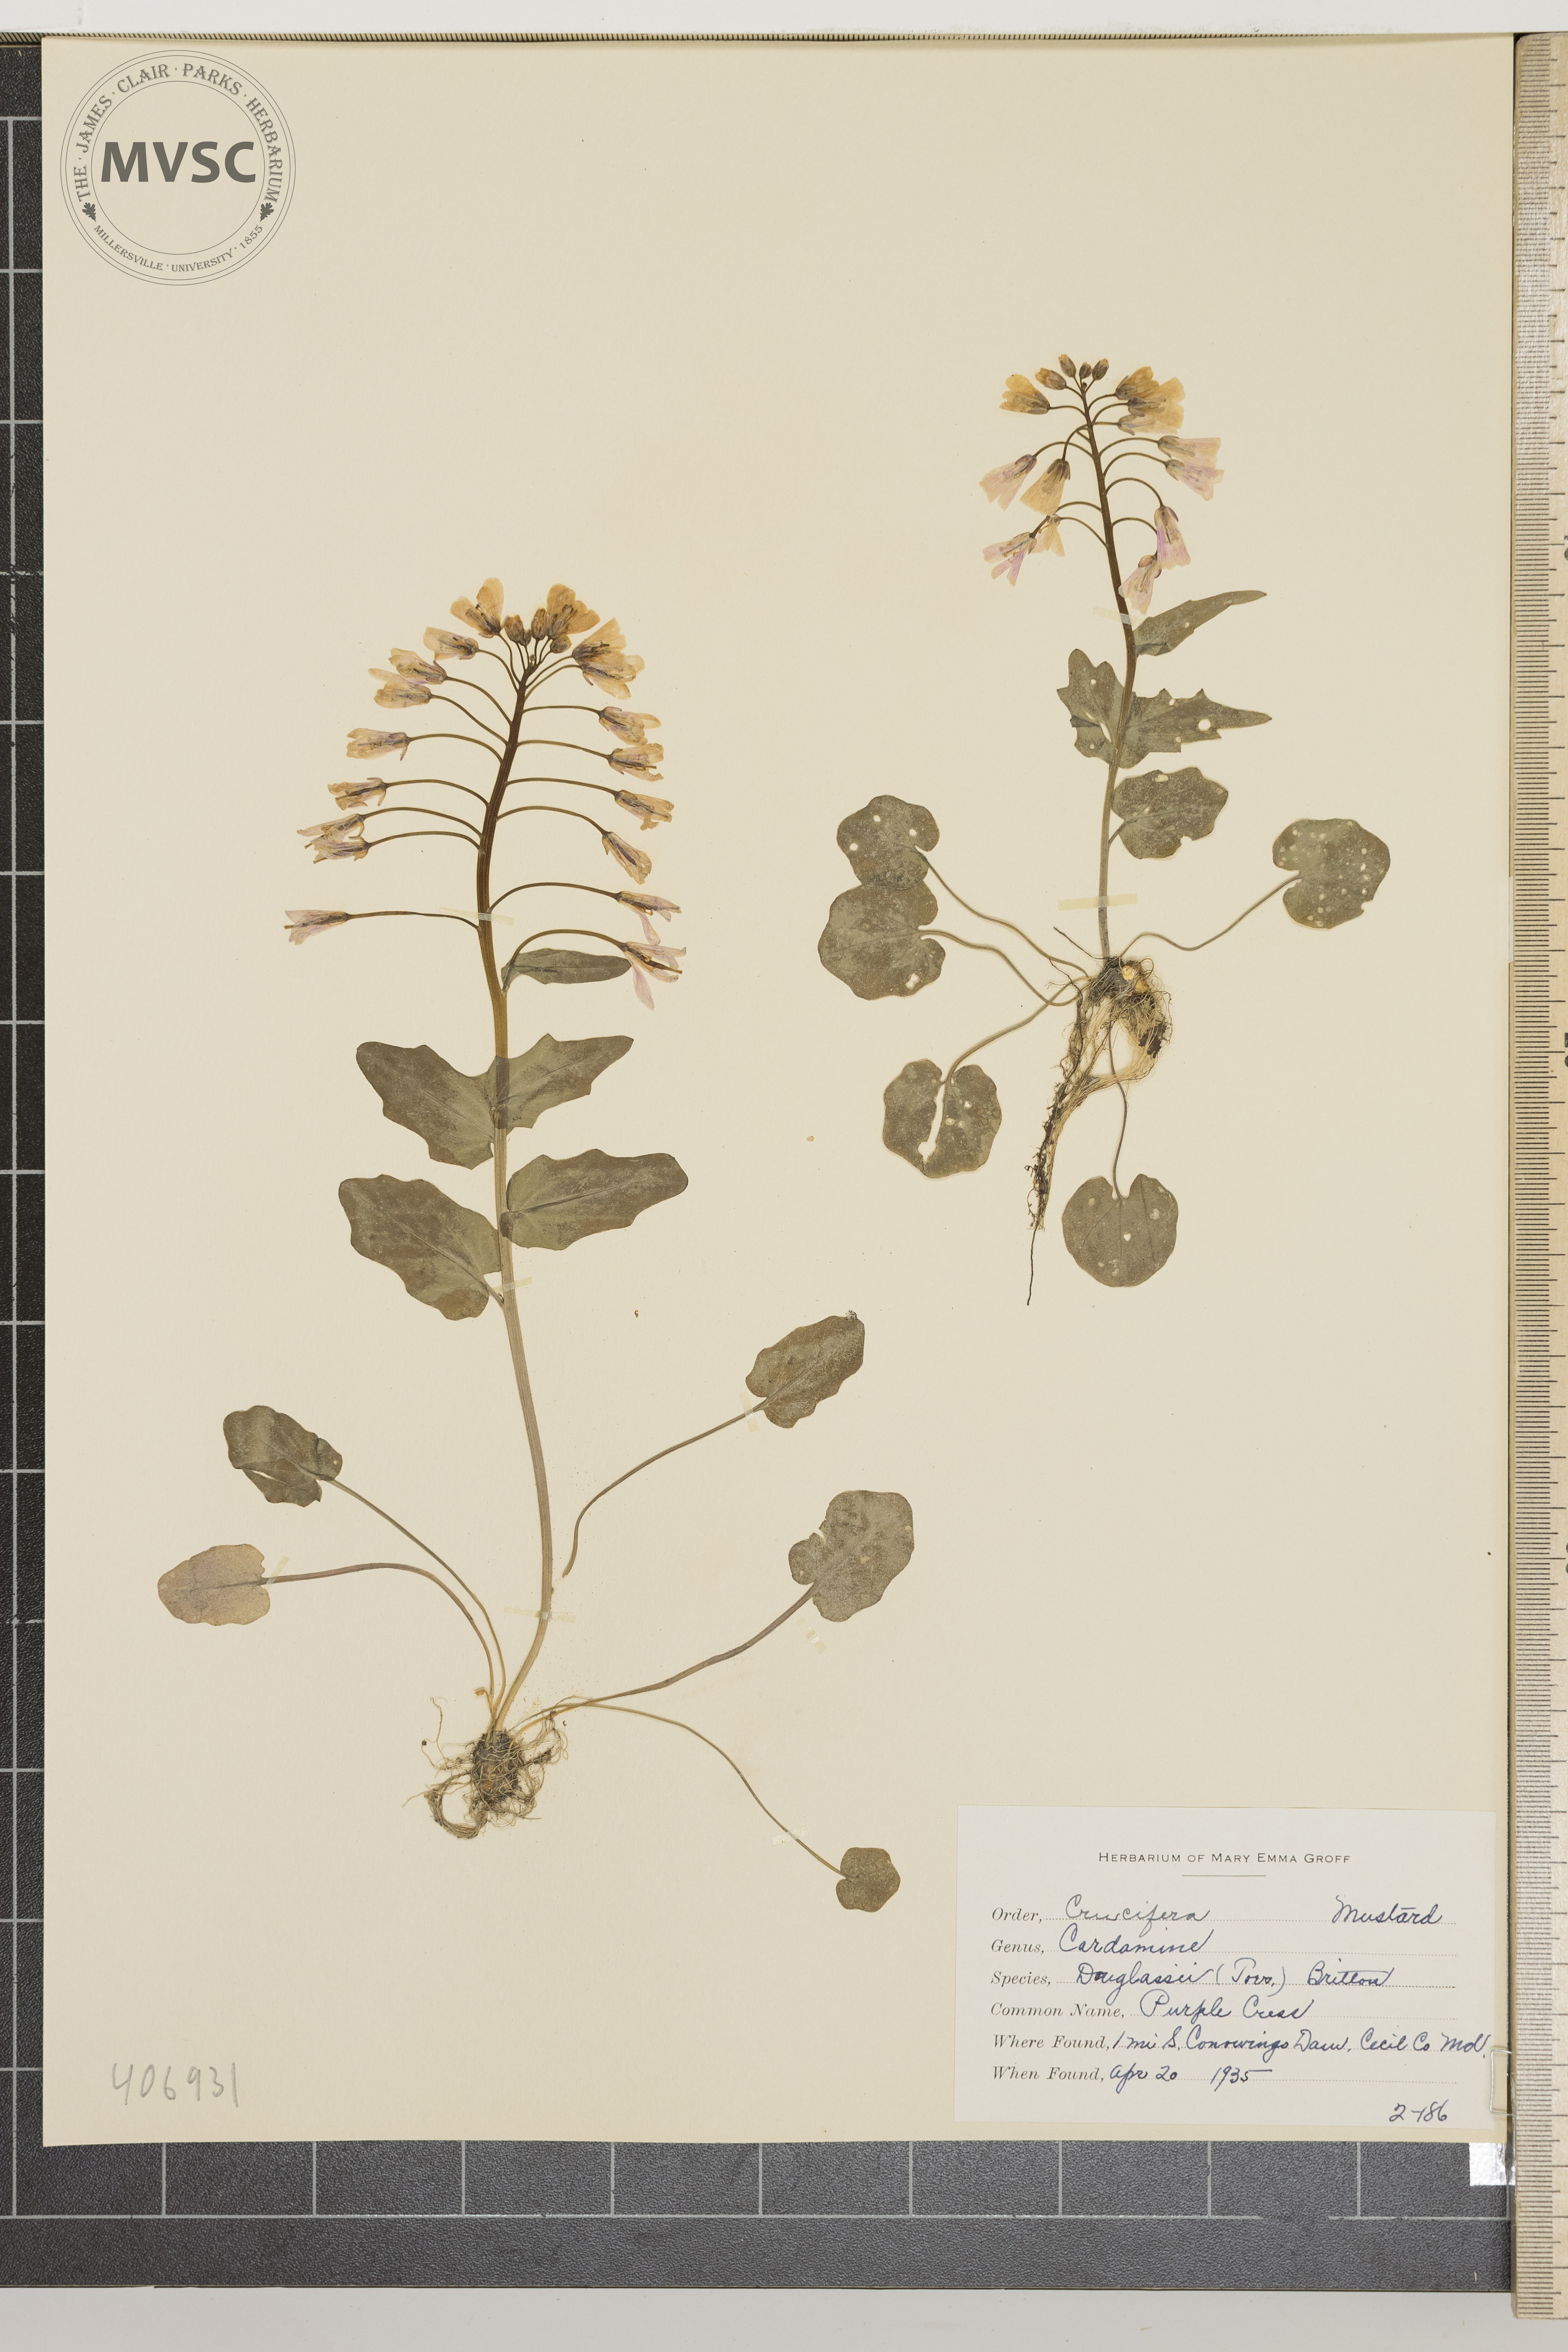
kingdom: Plantae
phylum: Tracheophyta
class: Magnoliopsida
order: Brassicales
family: Brassicaceae
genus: Cardamine
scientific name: Cardamine douglassii
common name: Purple Cress
